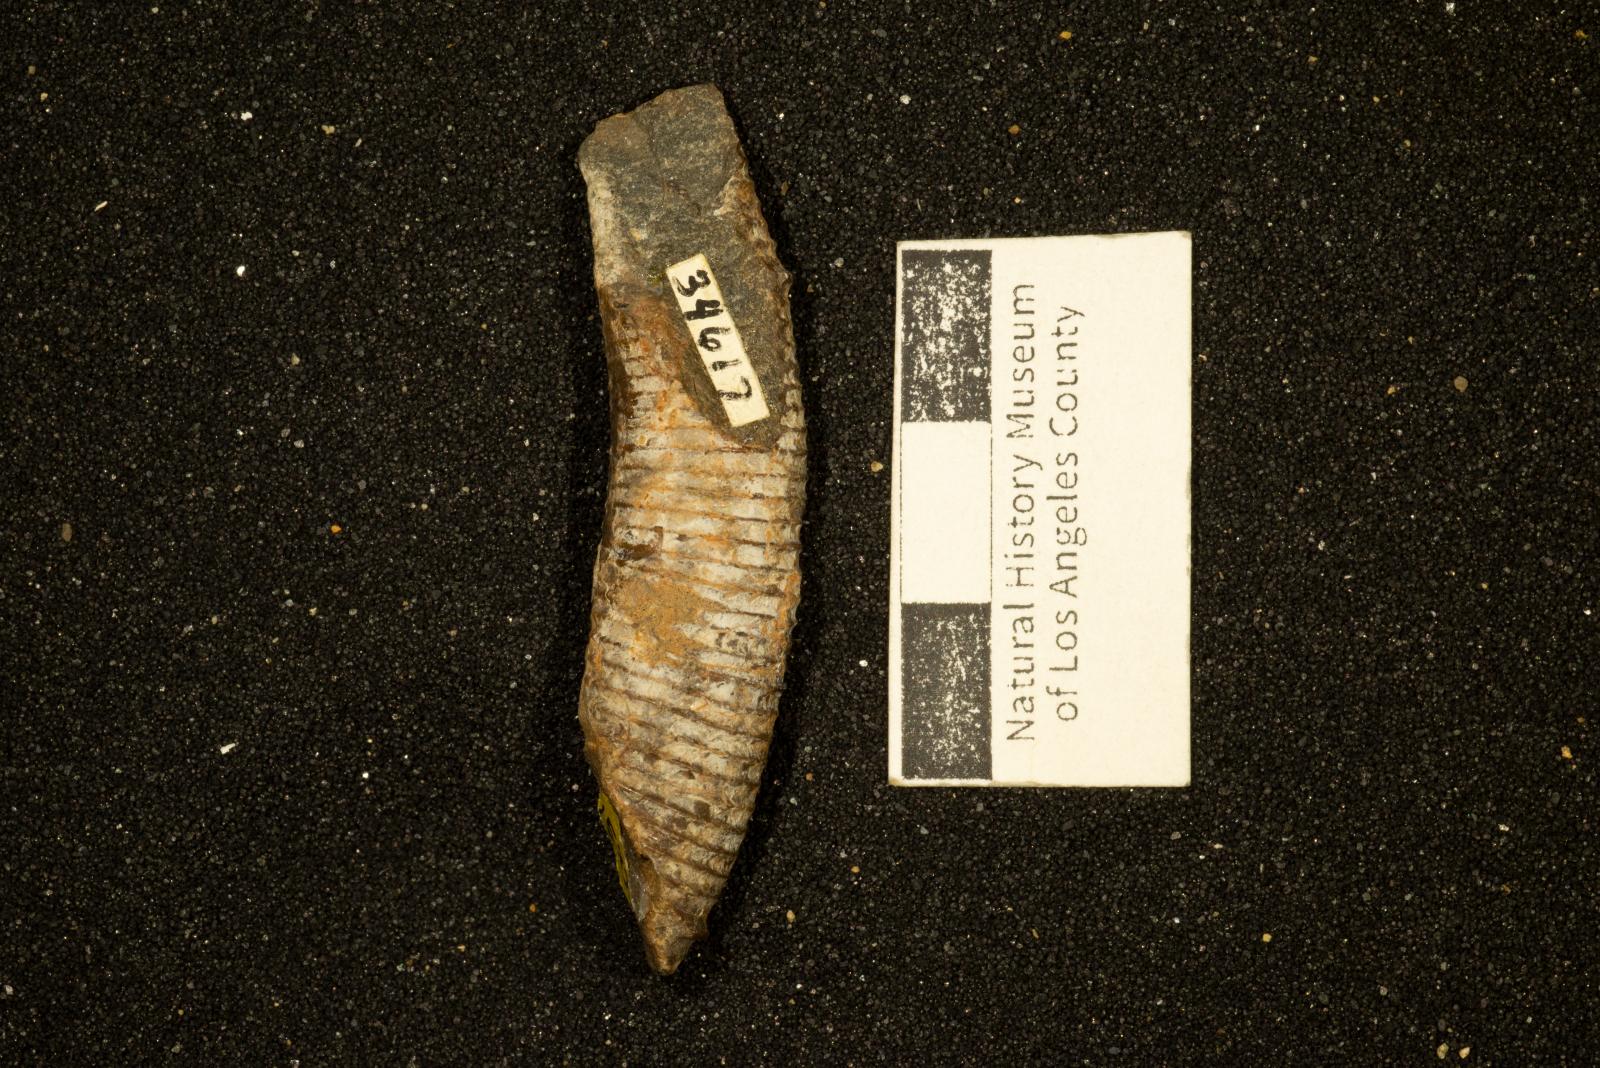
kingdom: Animalia
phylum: Mollusca
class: Cephalopoda
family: Diplomoceratidae
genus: Scalarites
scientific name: Scalarites mihoensis
